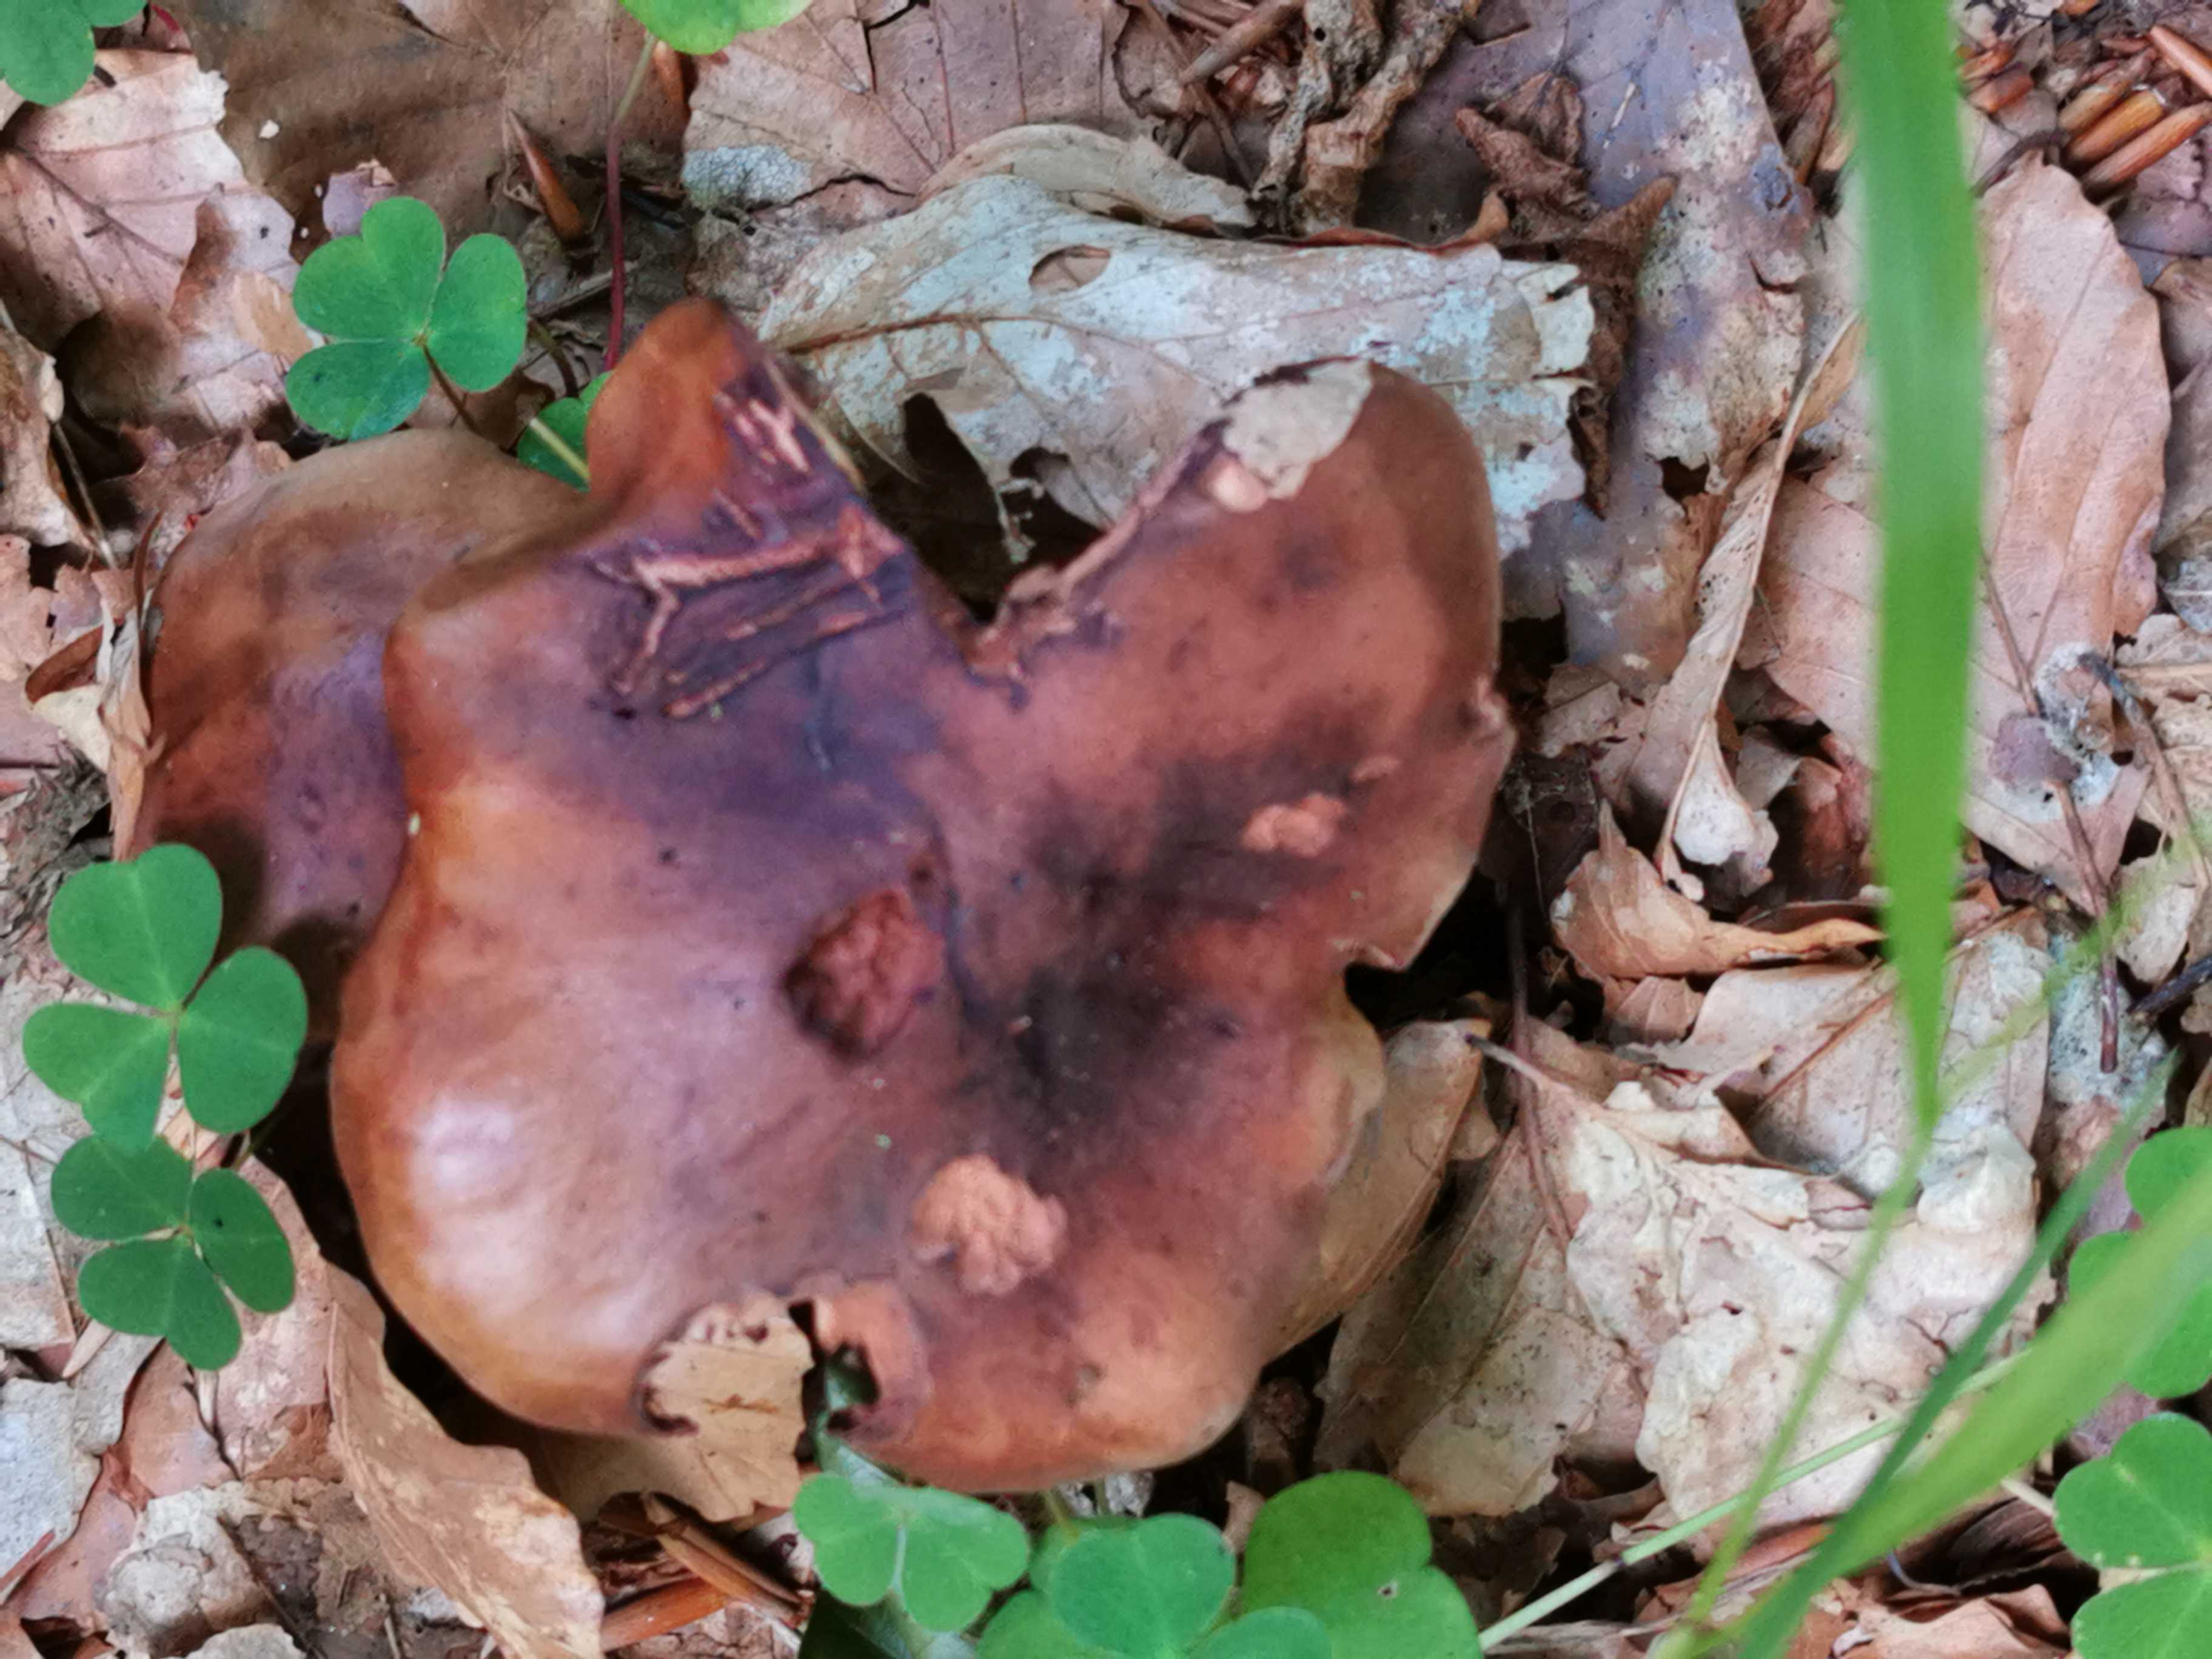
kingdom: Fungi
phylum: Basidiomycota
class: Agaricomycetes
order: Agaricales
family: Tricholomataceae
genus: Tricholoma
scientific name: Tricholoma ustale
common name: sveden ridderhat
